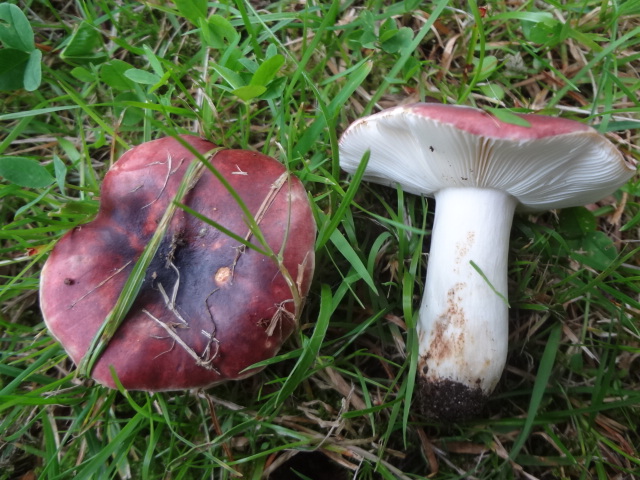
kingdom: Fungi
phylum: Basidiomycota
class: Agaricomycetes
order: Russulales
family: Russulaceae
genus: Russula
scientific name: Russula atropurpurea
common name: purpurbroget skørhat
